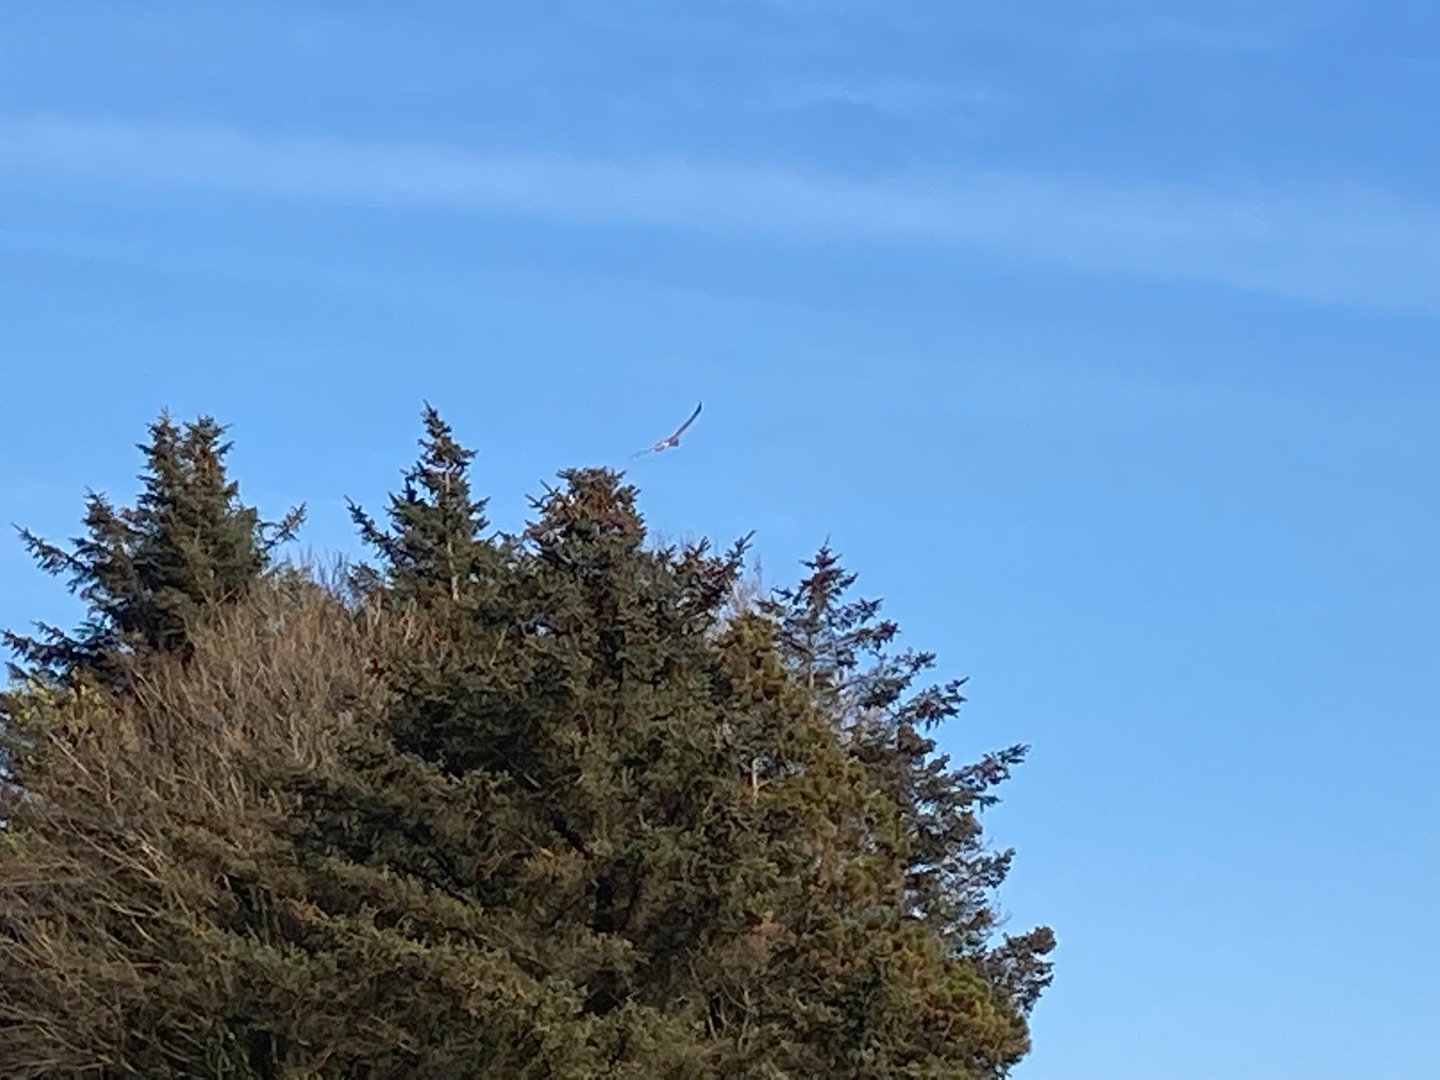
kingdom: Animalia
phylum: Chordata
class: Aves
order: Accipitriformes
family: Accipitridae
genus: Circus
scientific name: Circus aeruginosus
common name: Rørhøg
